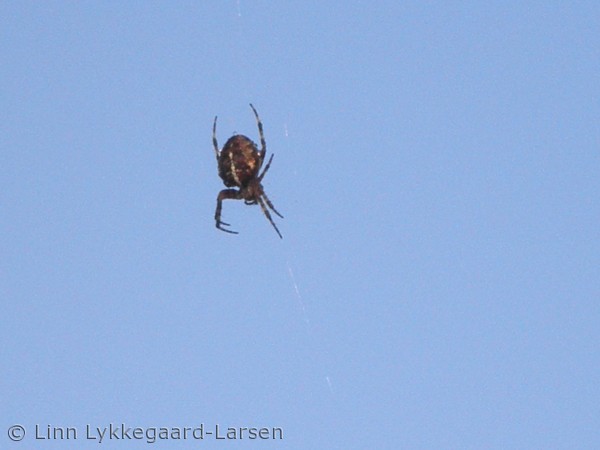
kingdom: Animalia
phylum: Arthropoda
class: Arachnida
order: Araneae
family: Araneidae
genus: Araneus
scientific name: Araneus diadematus
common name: Korsedderkop
